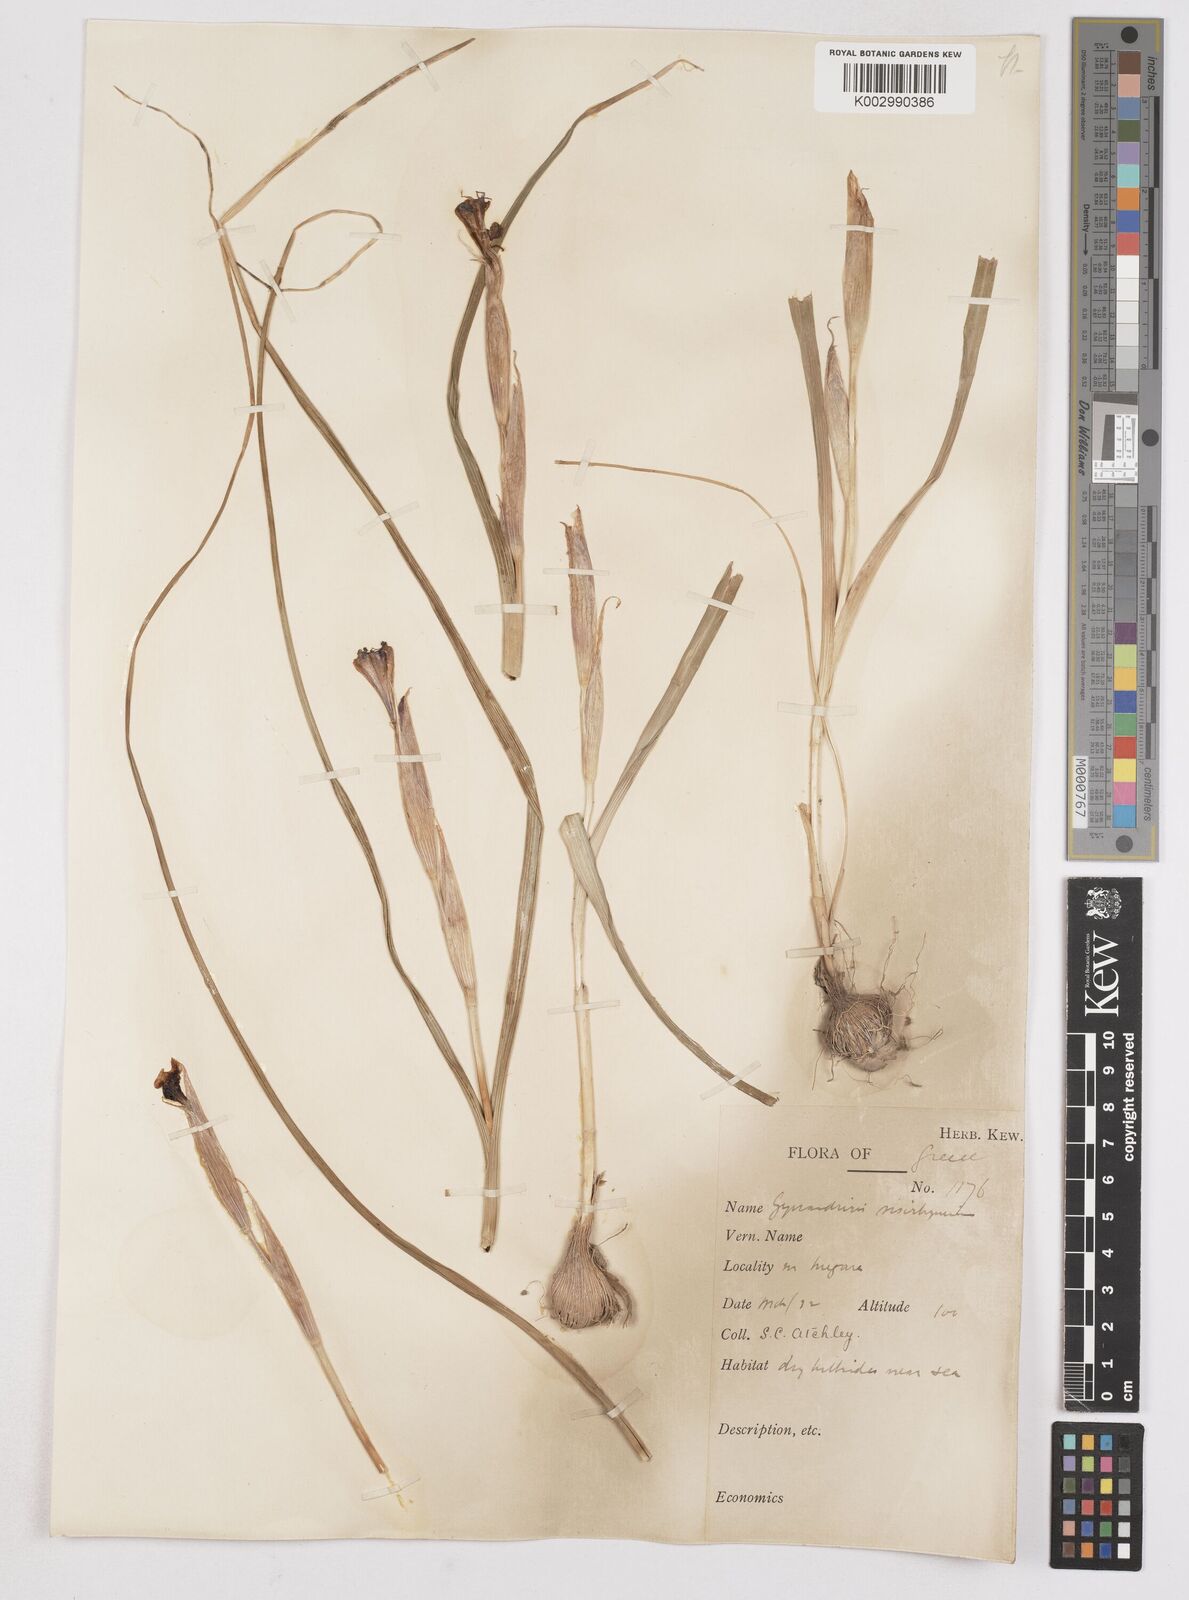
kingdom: Plantae
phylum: Tracheophyta
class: Liliopsida
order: Asparagales
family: Iridaceae
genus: Moraea
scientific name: Moraea sisyrinchium
